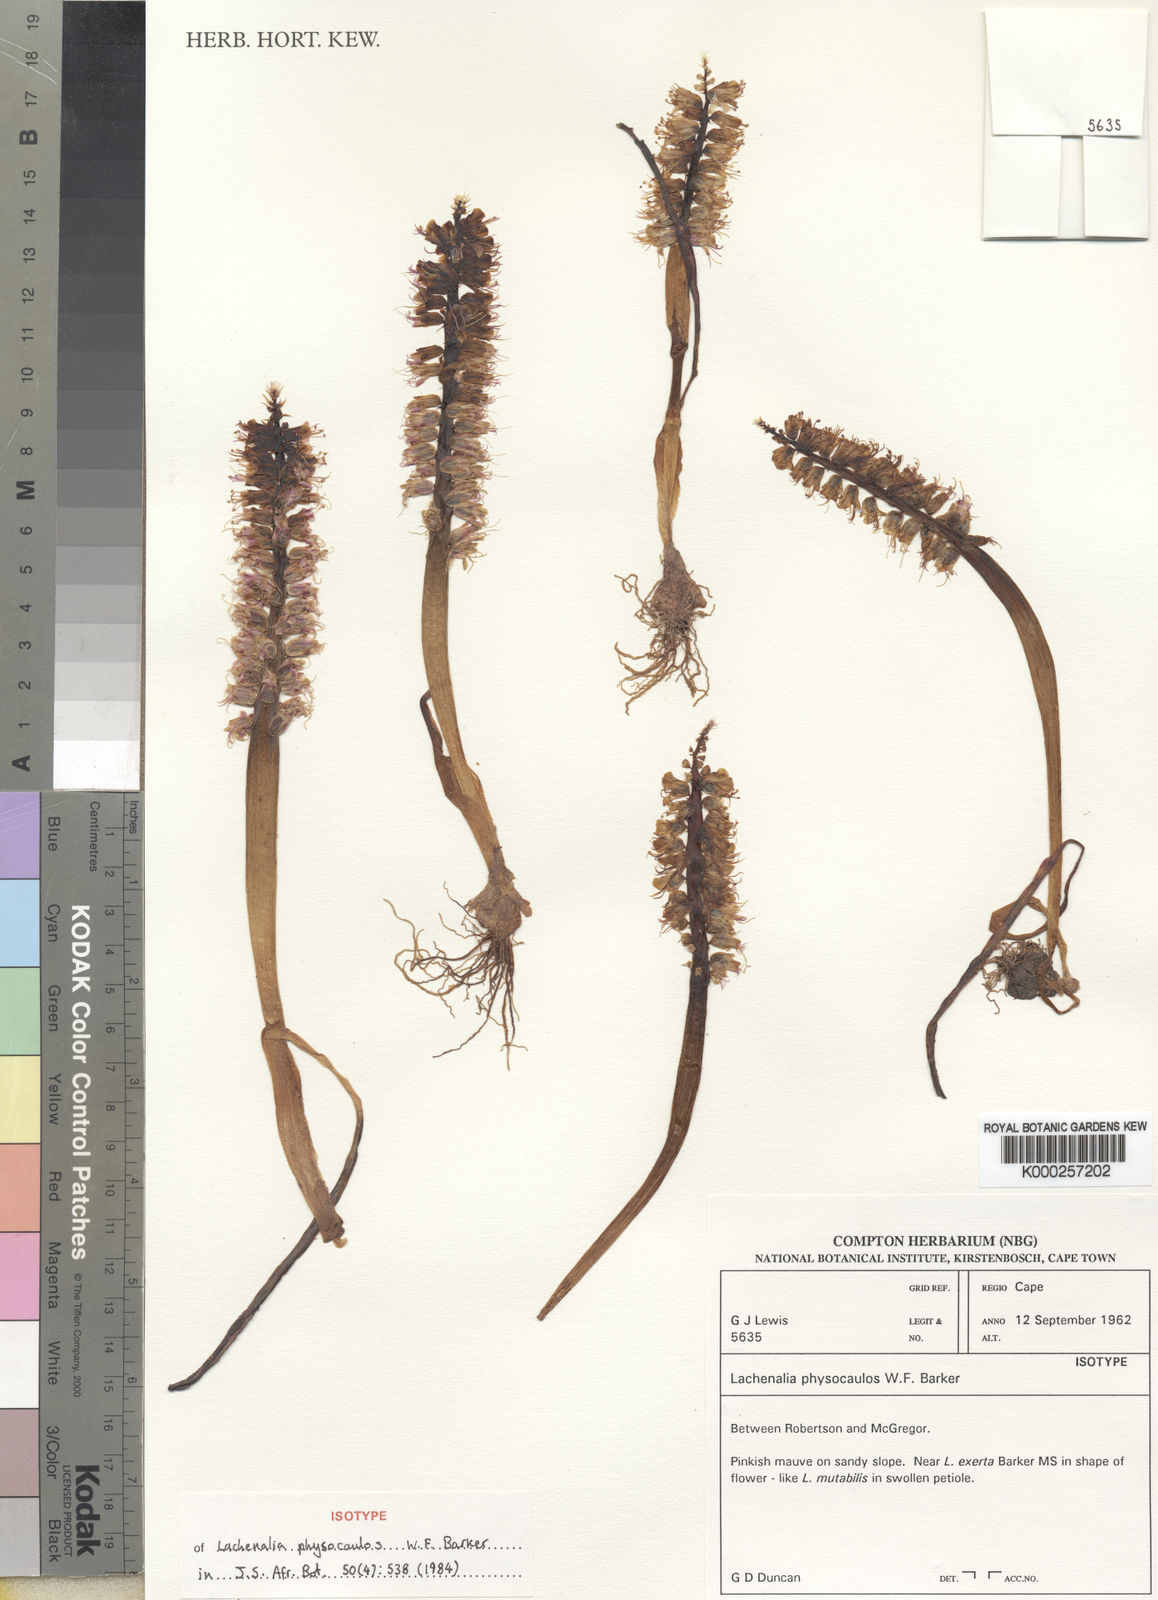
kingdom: Plantae
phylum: Tracheophyta
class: Liliopsida
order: Asparagales
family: Asparagaceae
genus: Lachenalia
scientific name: Lachenalia physocaulos
